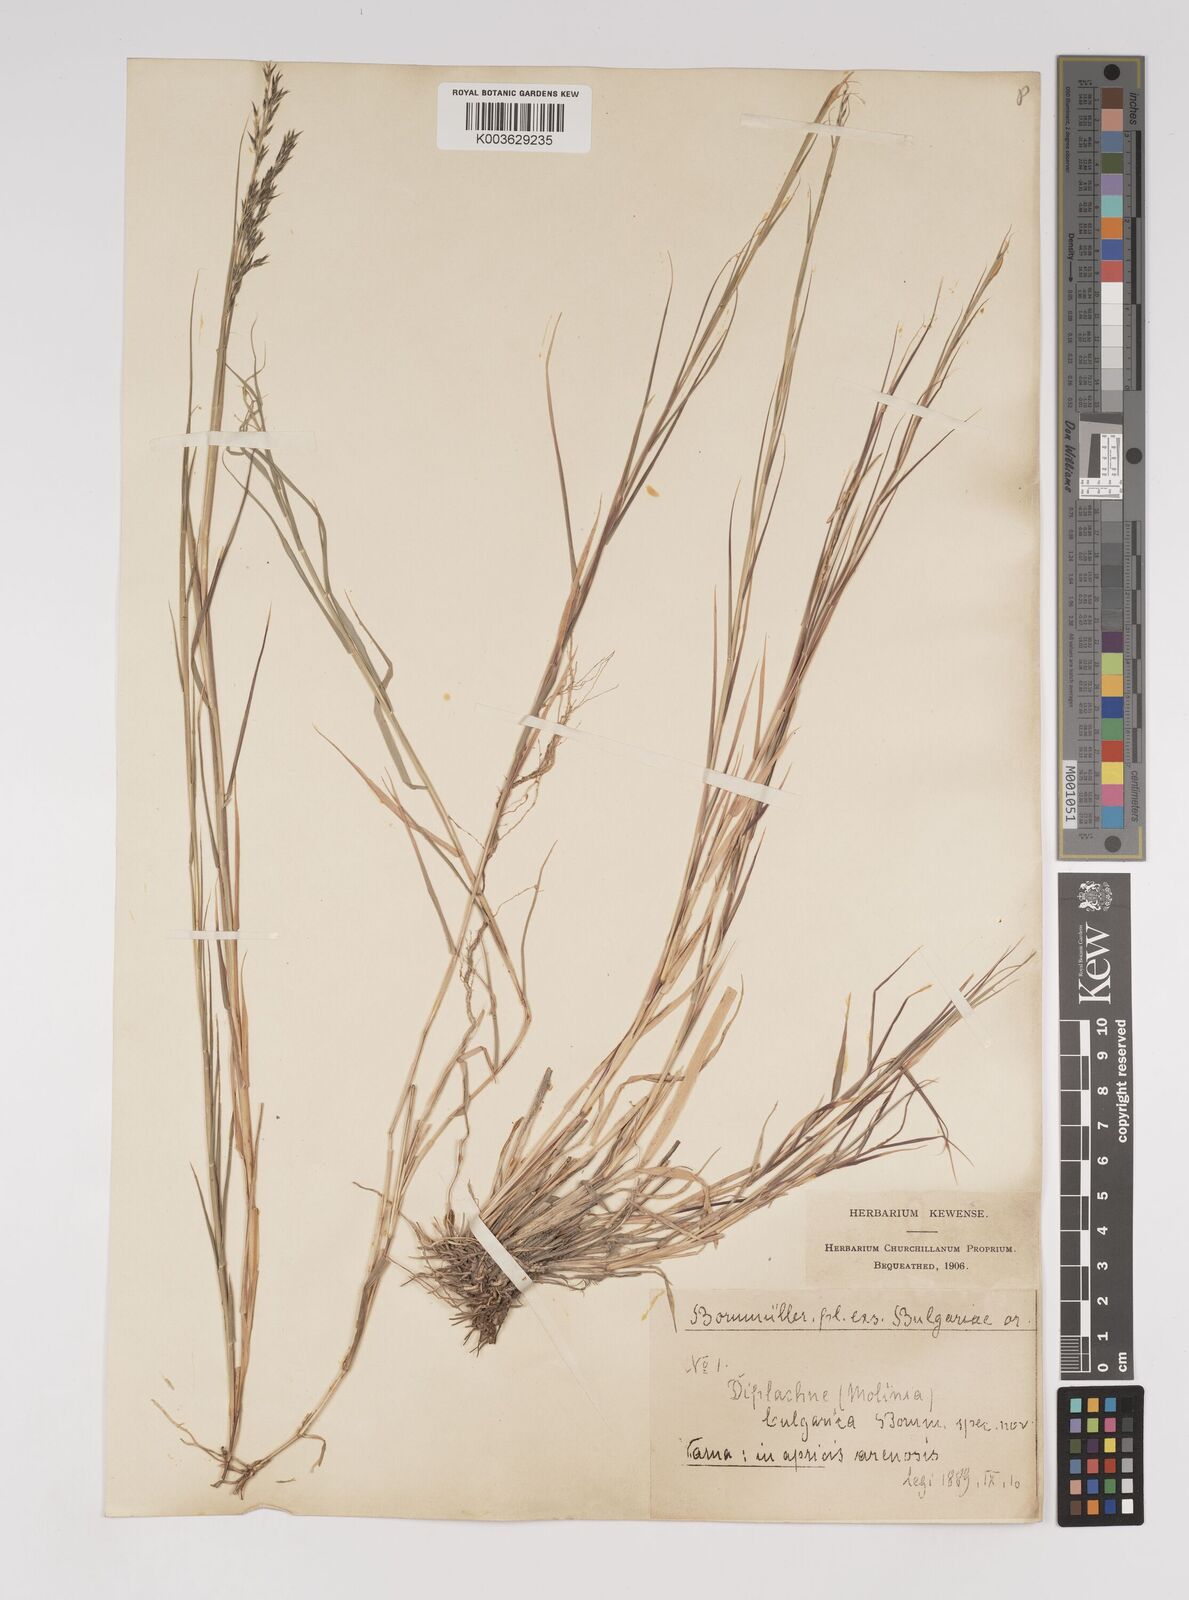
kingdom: Plantae
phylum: Tracheophyta
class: Liliopsida
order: Poales
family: Poaceae
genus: Cleistogenes
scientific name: Cleistogenes serotina
